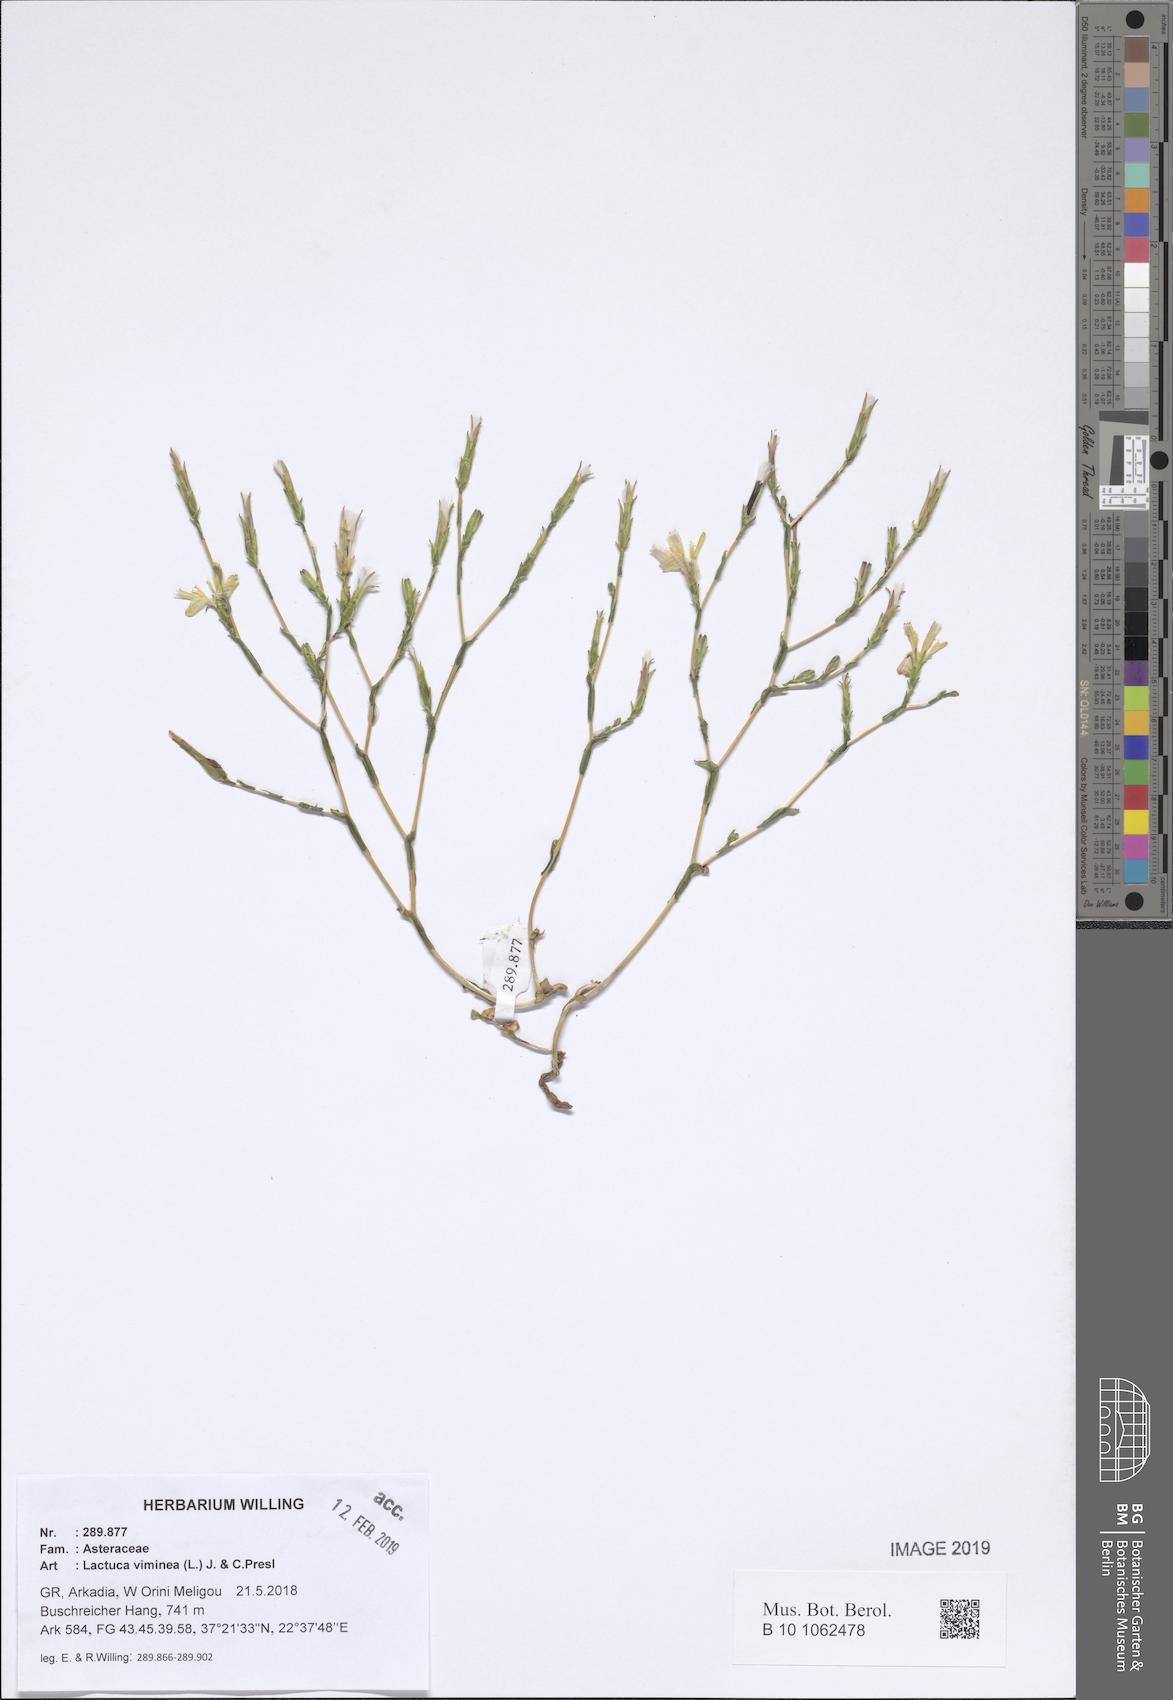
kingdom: Plantae
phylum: Tracheophyta
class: Magnoliopsida
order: Asterales
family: Asteraceae
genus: Lactuca
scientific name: Lactuca viminea
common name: Pliant lettuce
